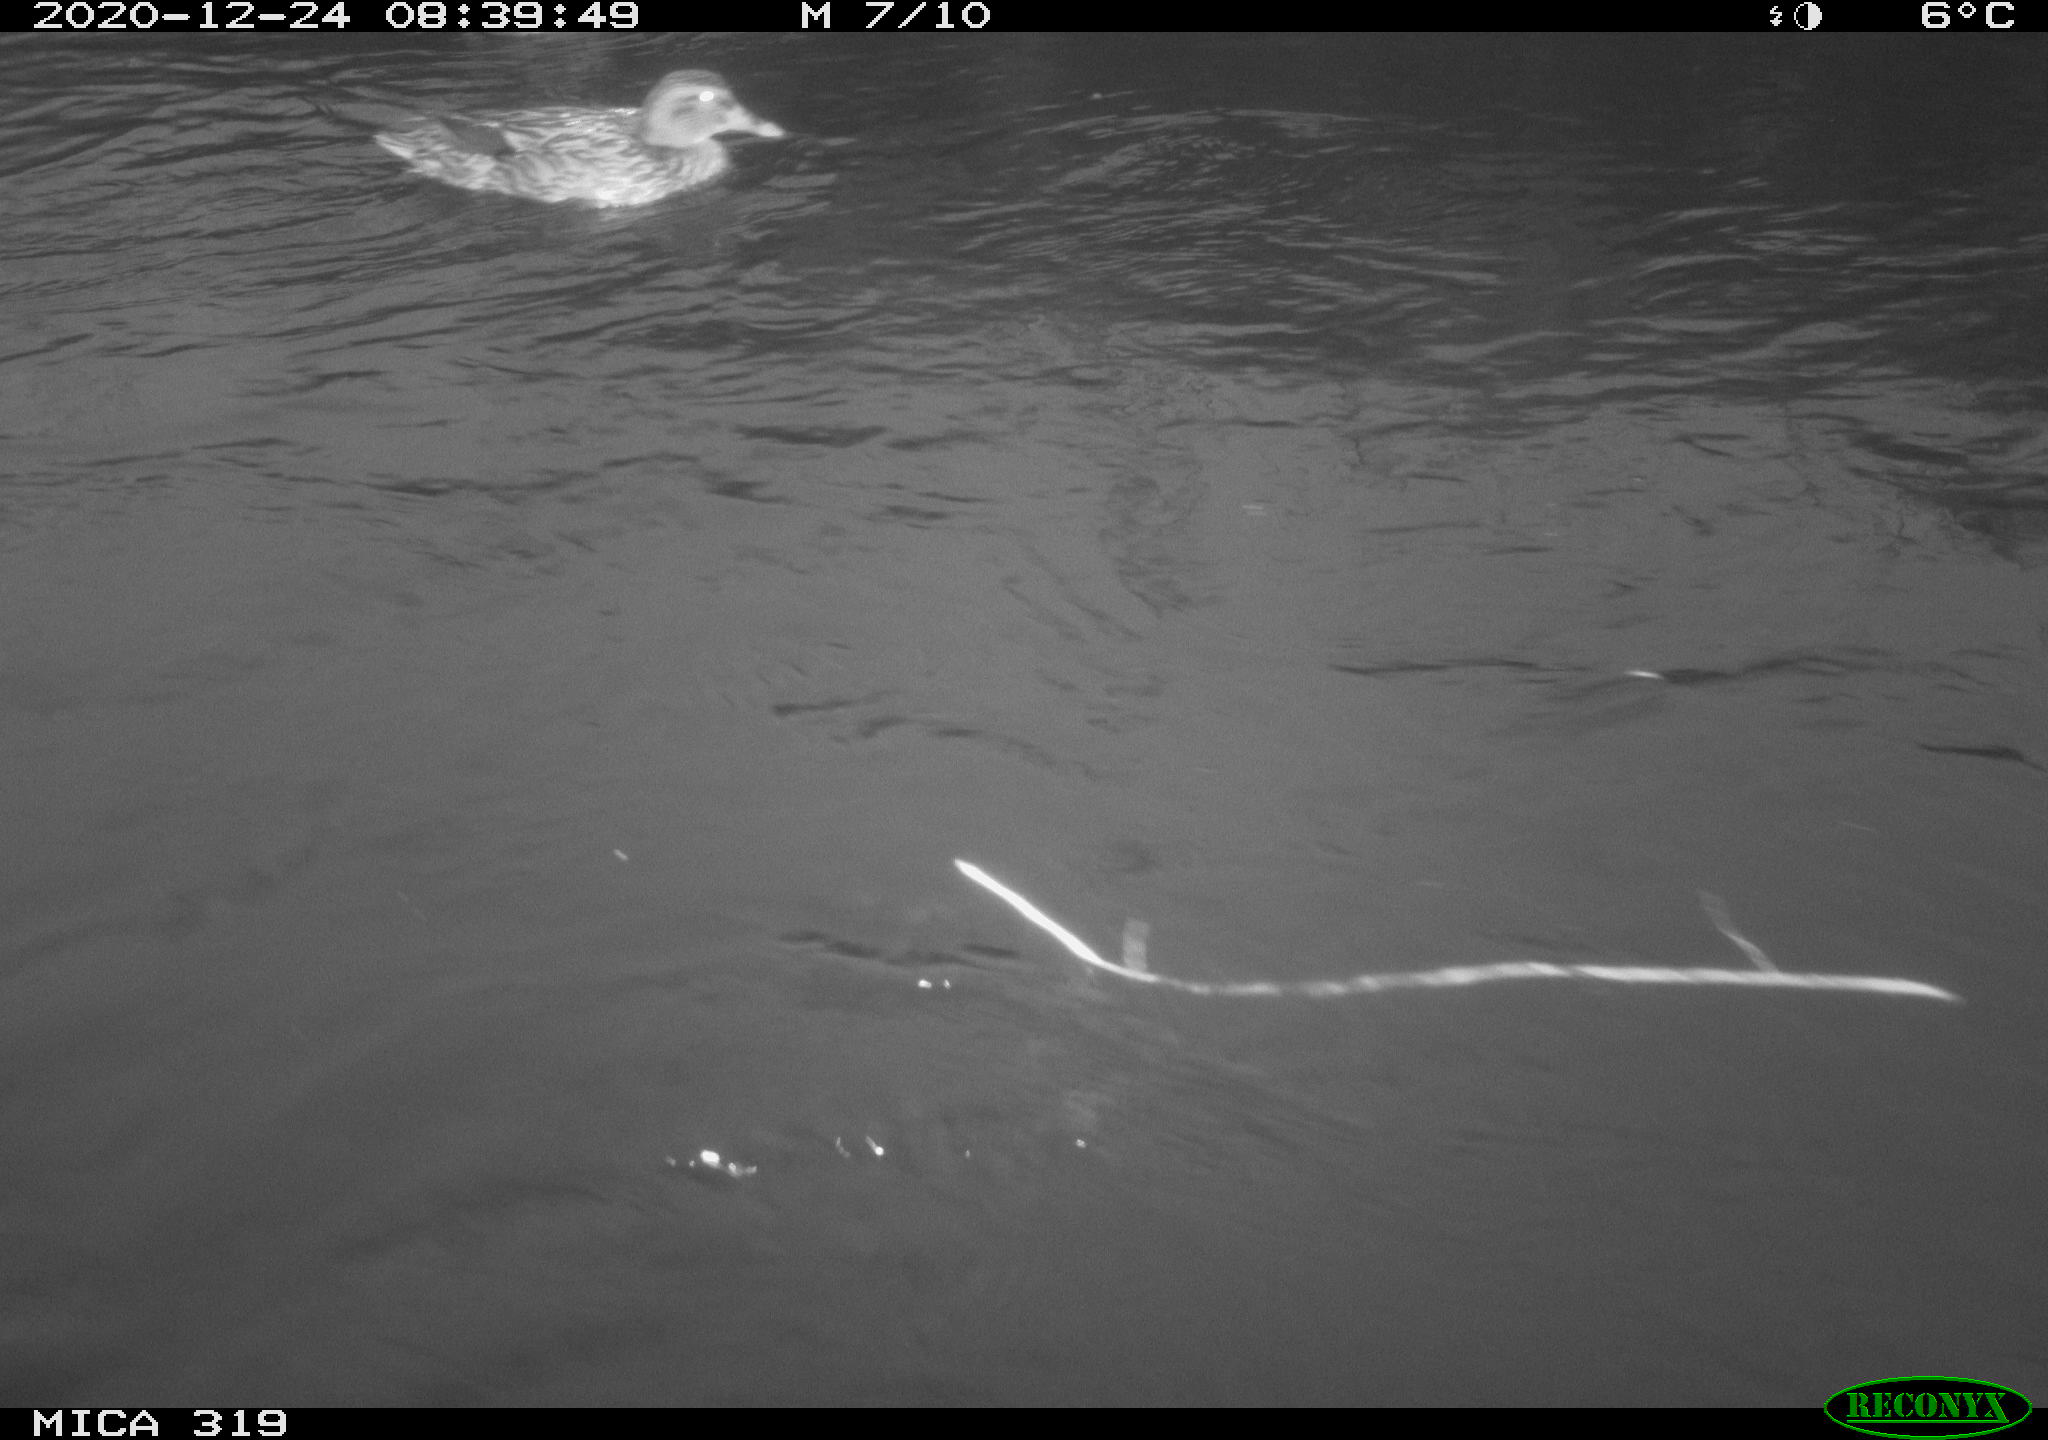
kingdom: Animalia
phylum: Chordata
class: Aves
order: Anseriformes
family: Anatidae
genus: Anas
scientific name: Anas platyrhynchos
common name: Mallard
